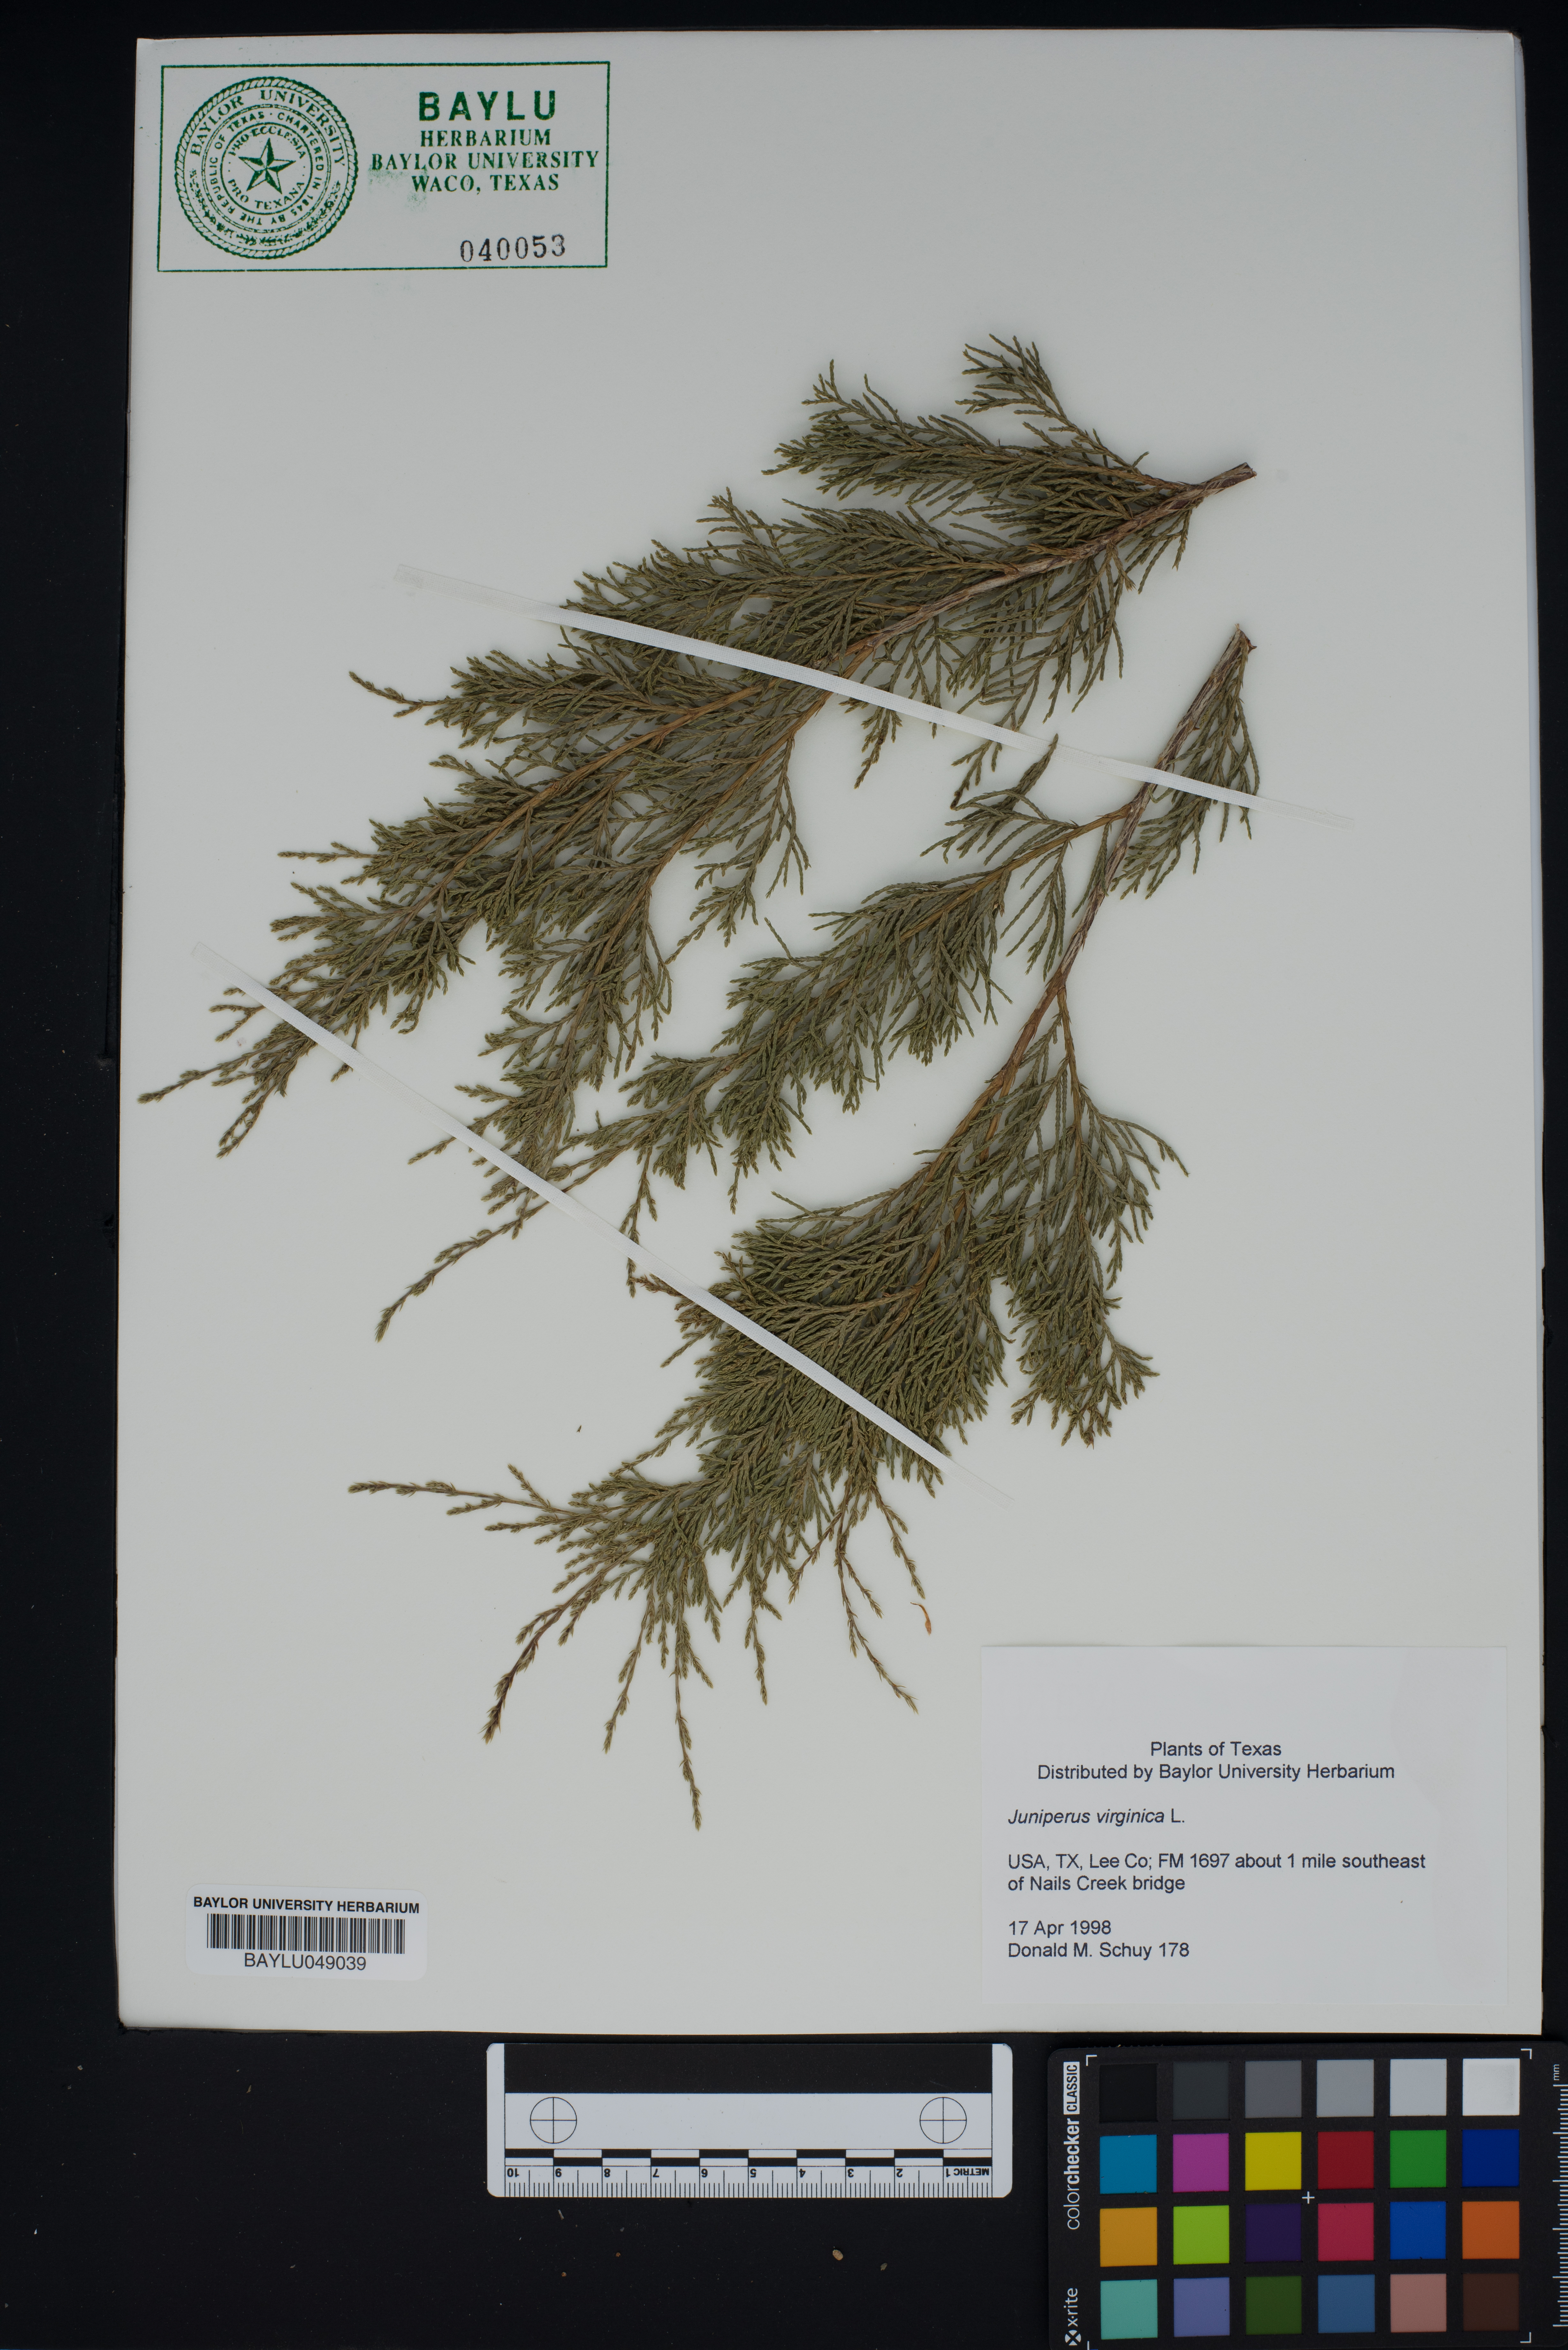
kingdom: Plantae
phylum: Tracheophyta
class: Pinopsida
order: Pinales
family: Cupressaceae
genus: Juniperus
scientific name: Juniperus chinensis
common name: Chinese juniper
